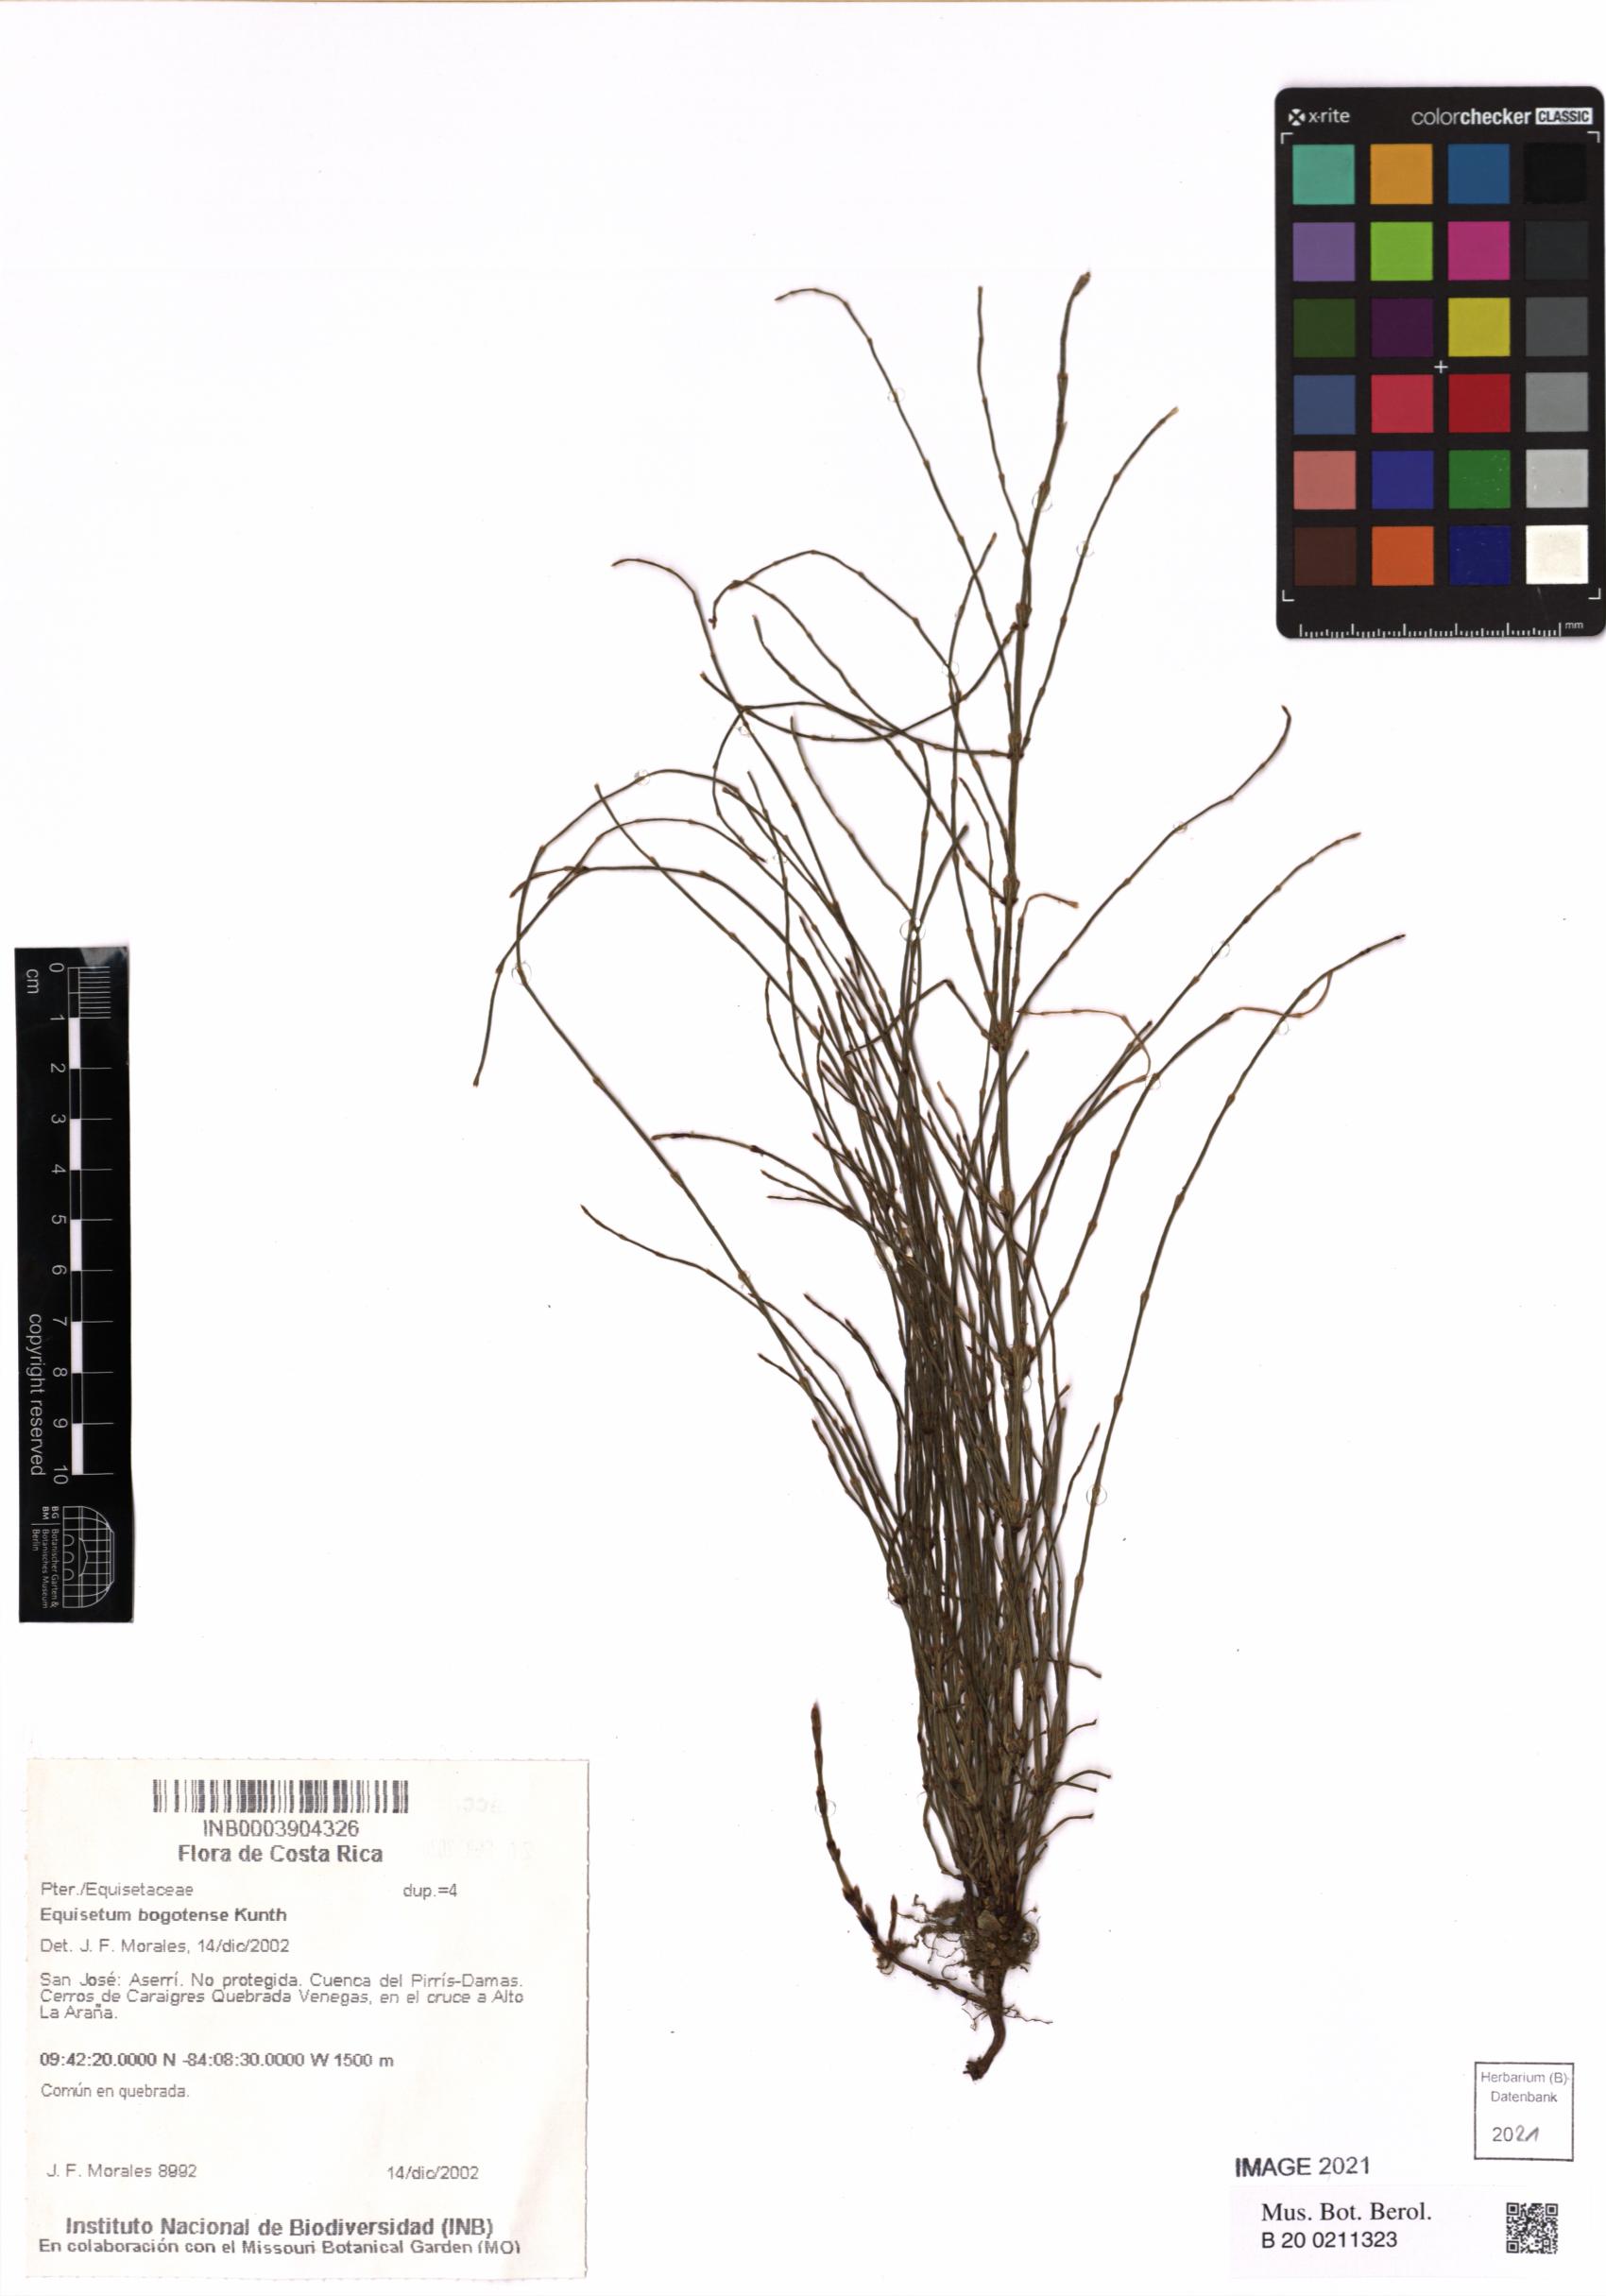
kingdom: Plantae
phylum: Tracheophyta
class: Polypodiopsida
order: Equisetales
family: Equisetaceae
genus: Equisetum
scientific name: Equisetum bogotense
